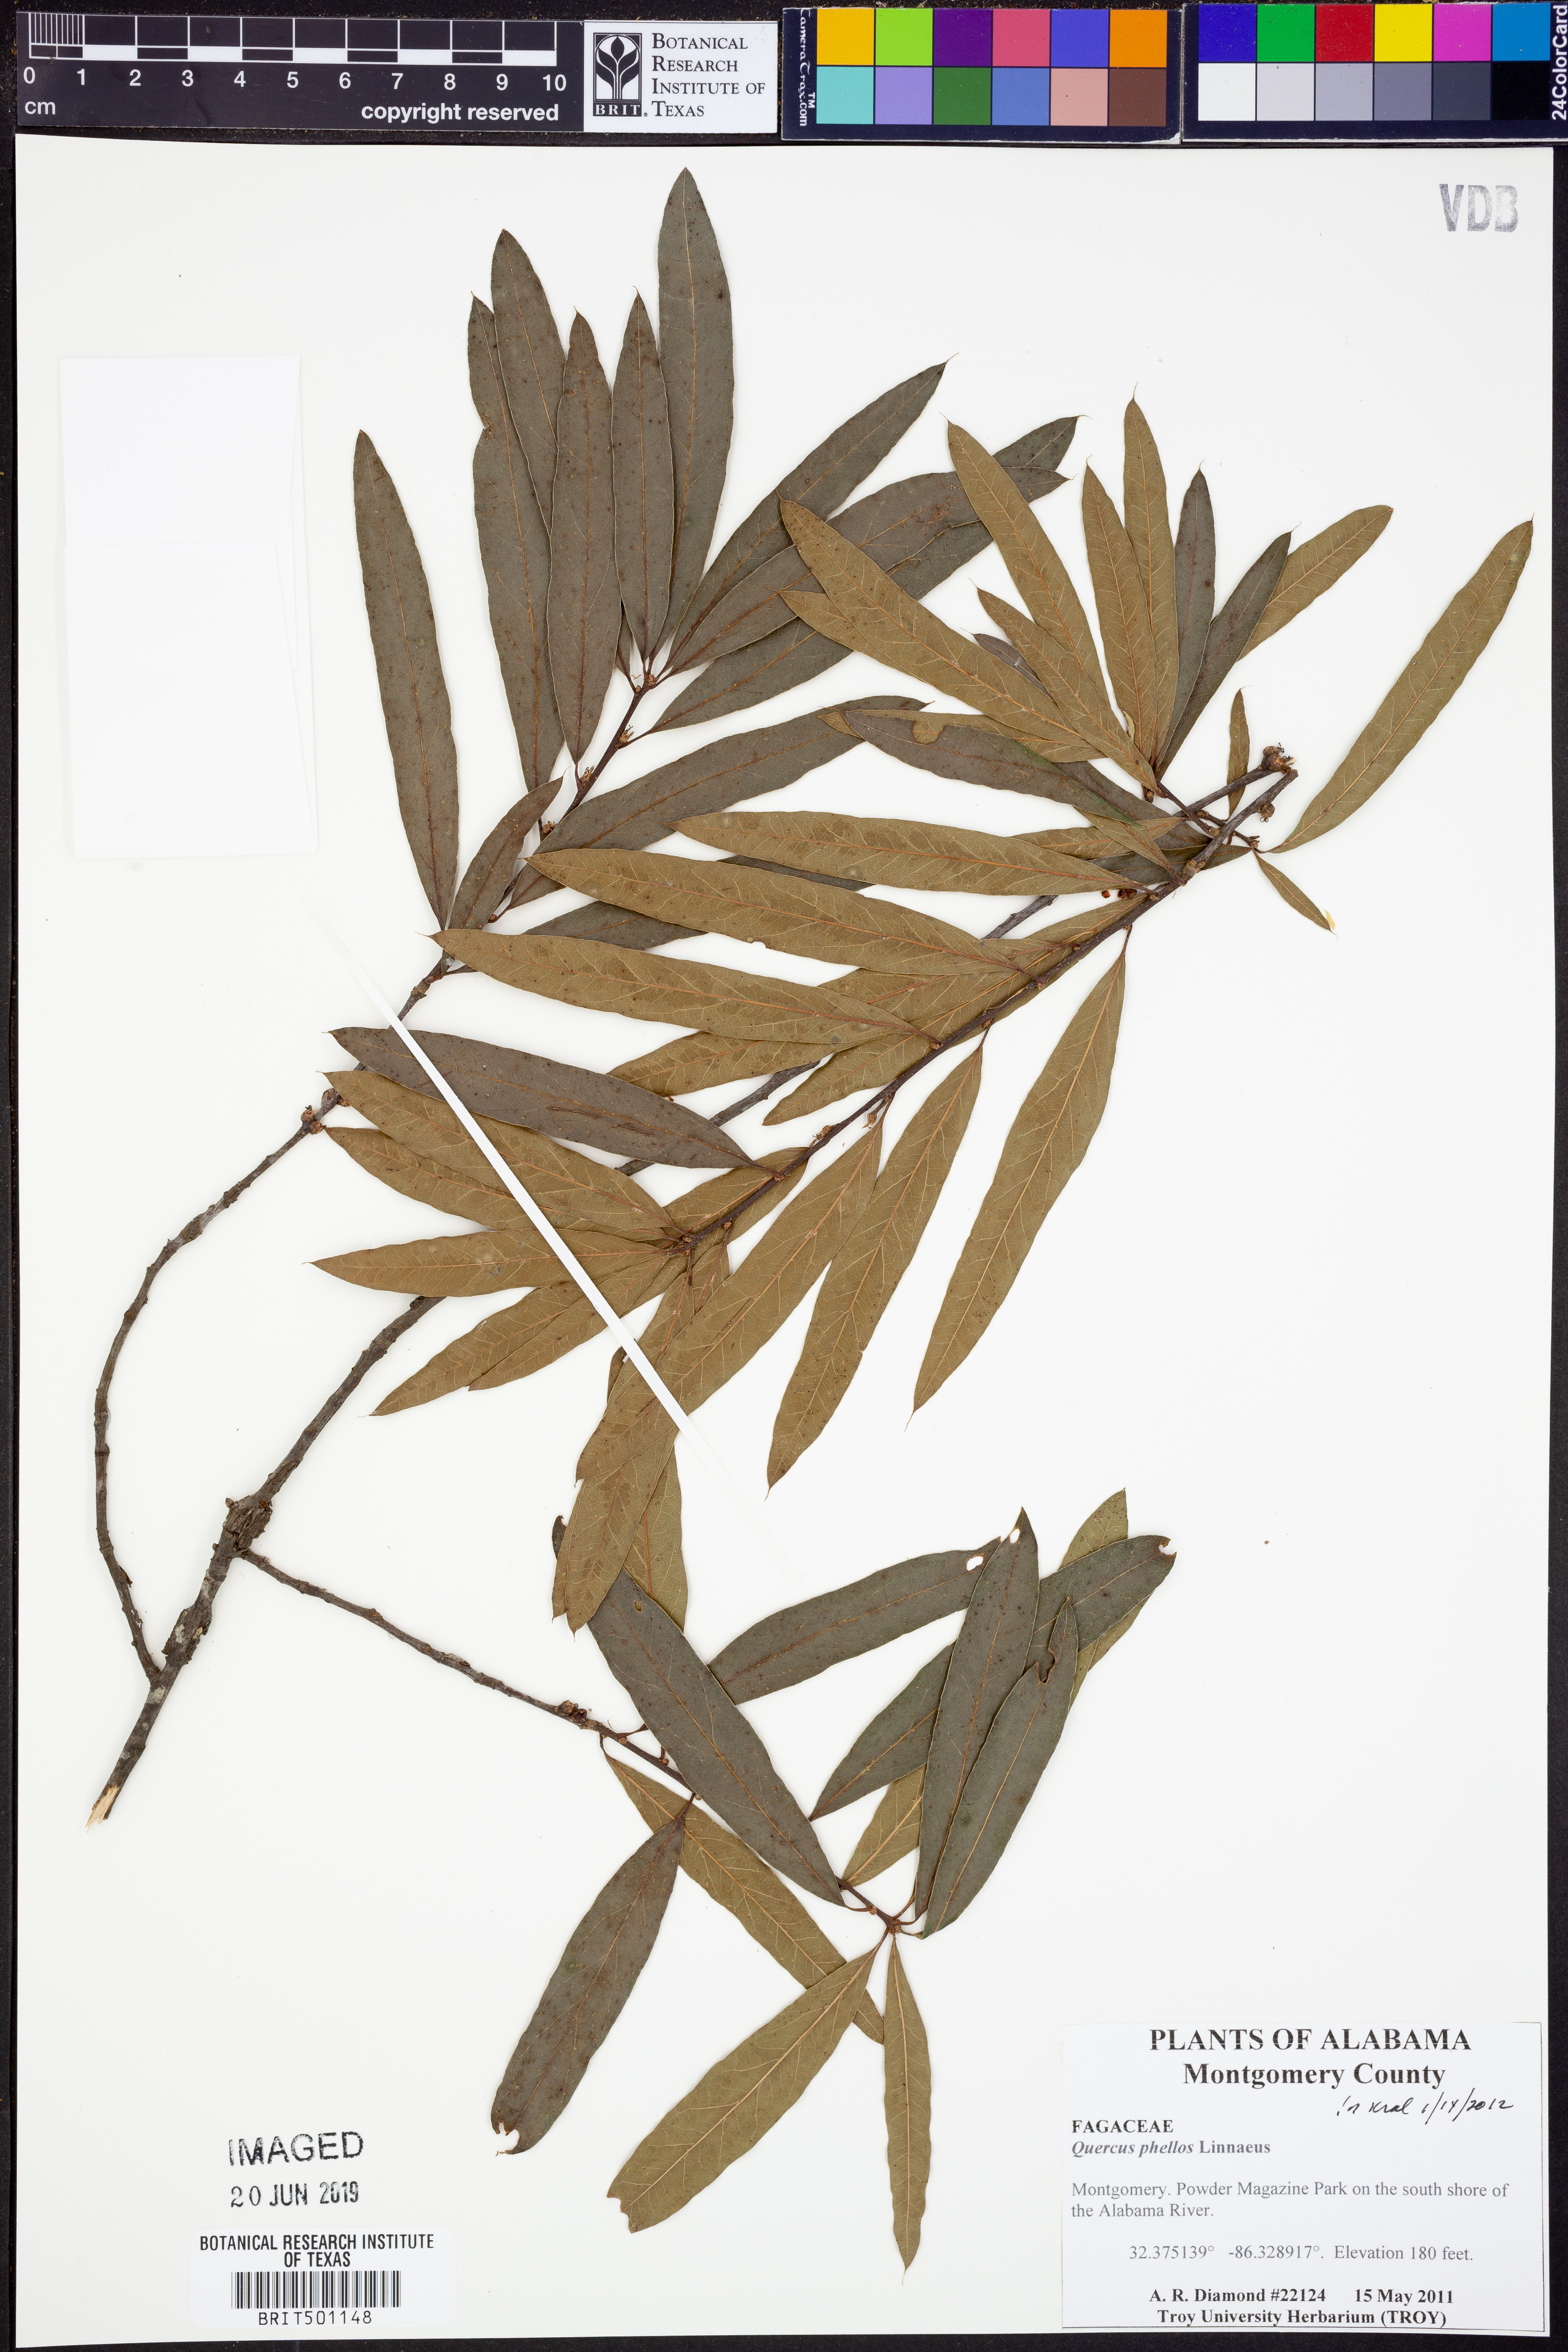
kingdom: Plantae
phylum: Tracheophyta
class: Magnoliopsida
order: Fagales
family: Fagaceae
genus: Quercus
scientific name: Quercus phellos
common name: Willow oak
